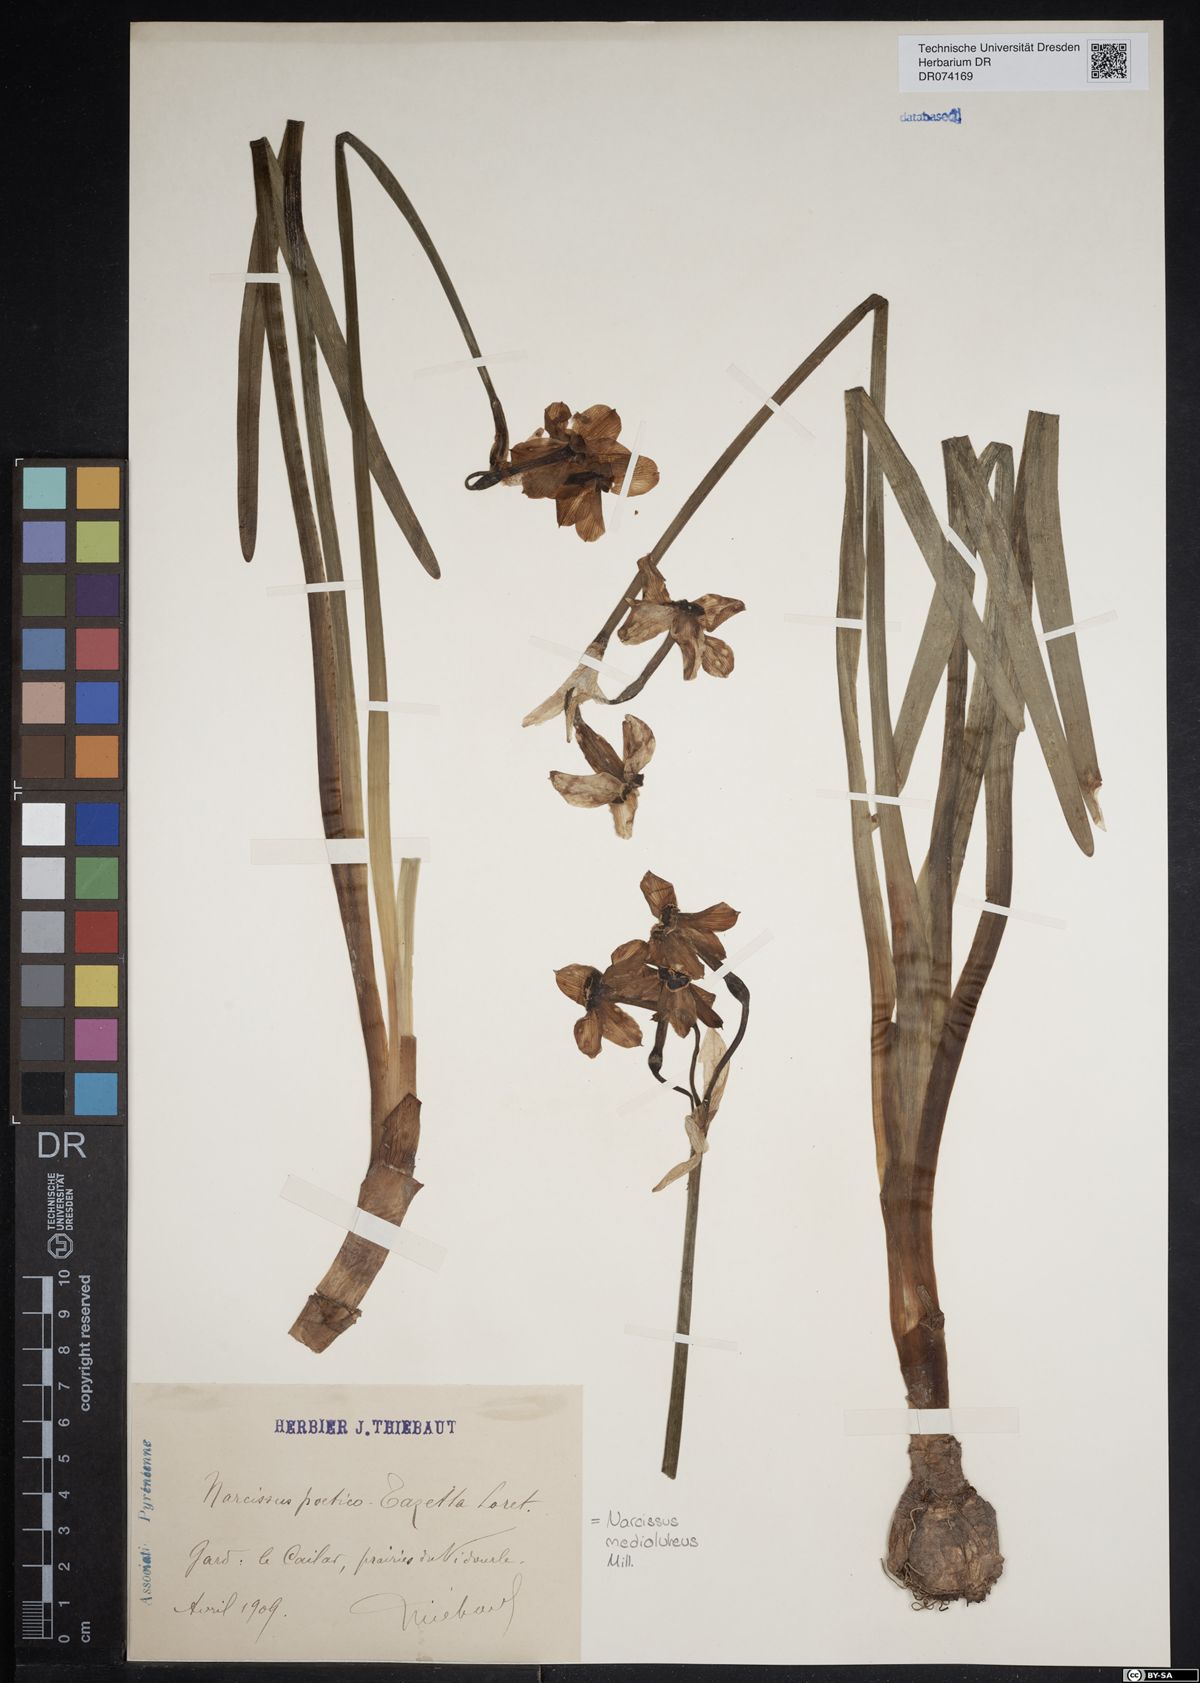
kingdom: Plantae
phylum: Tracheophyta
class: Liliopsida
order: Asparagales
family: Amaryllidaceae
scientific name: Amaryllidaceae
